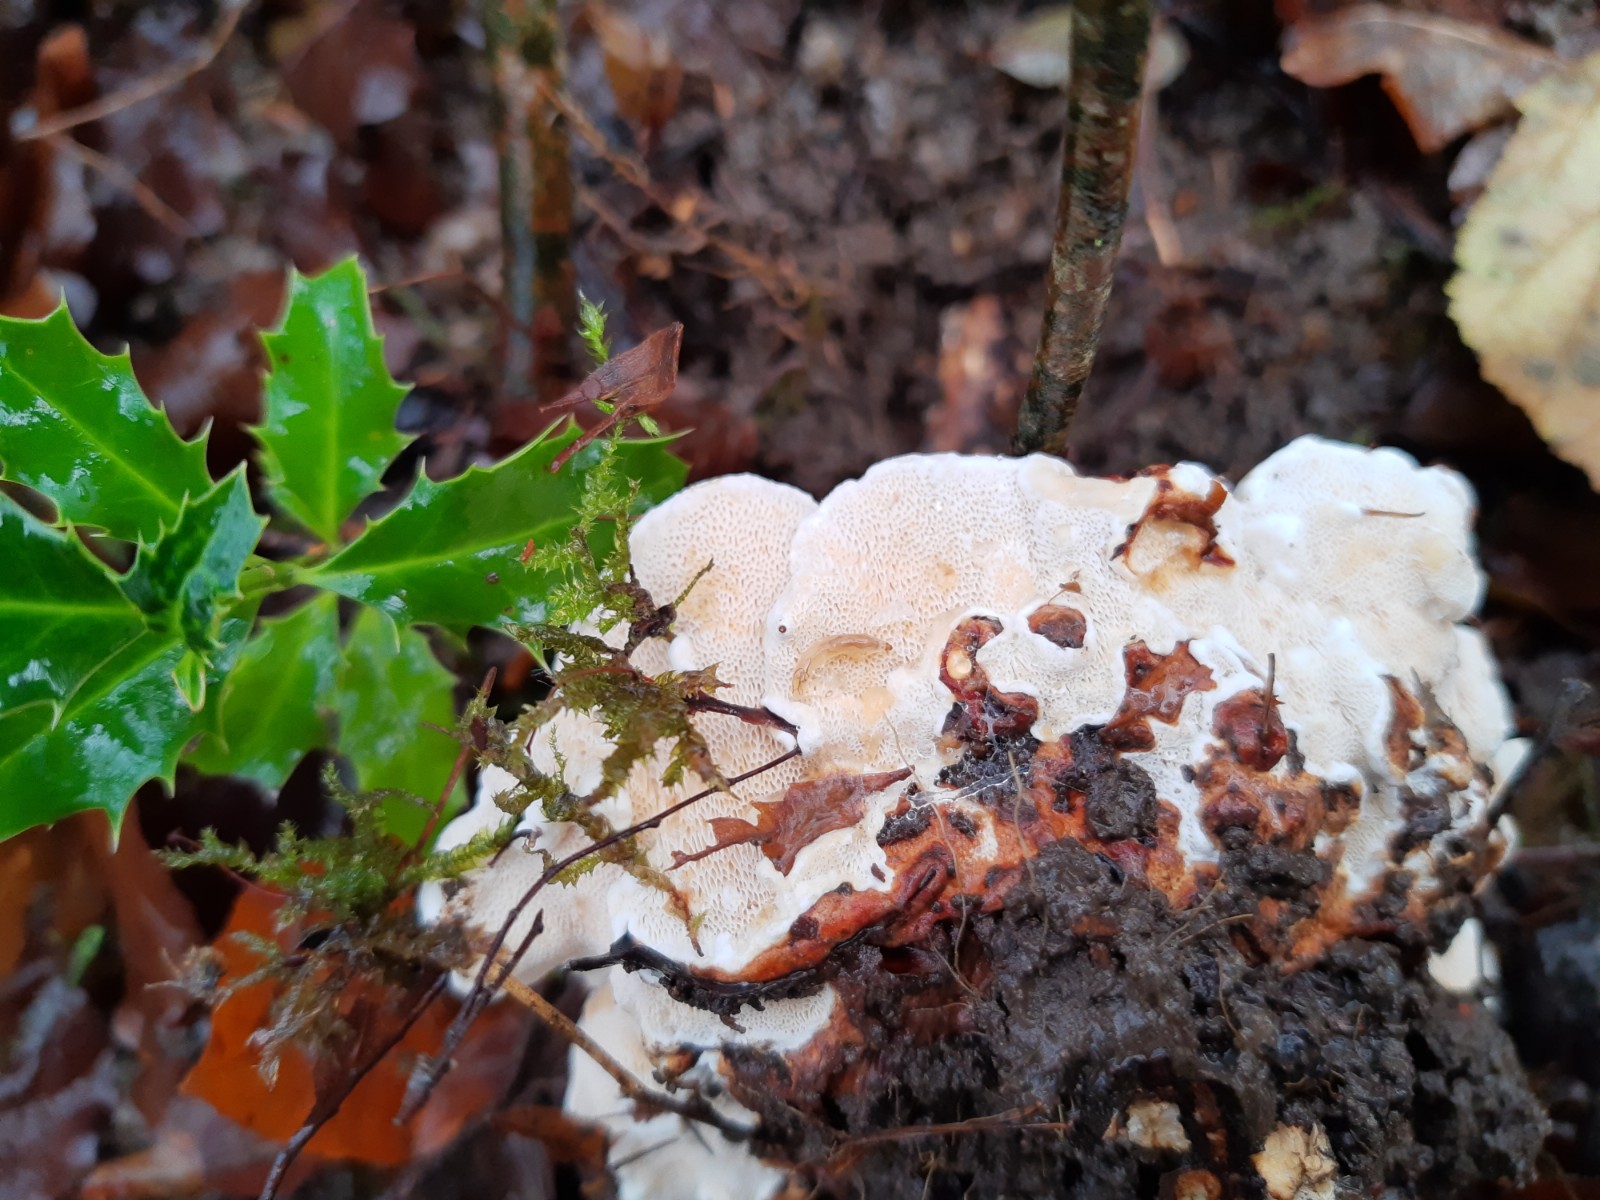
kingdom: Fungi
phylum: Basidiomycota
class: Agaricomycetes
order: Russulales
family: Bondarzewiaceae
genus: Heterobasidion
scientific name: Heterobasidion annosum
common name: almindelig rodfordærver
